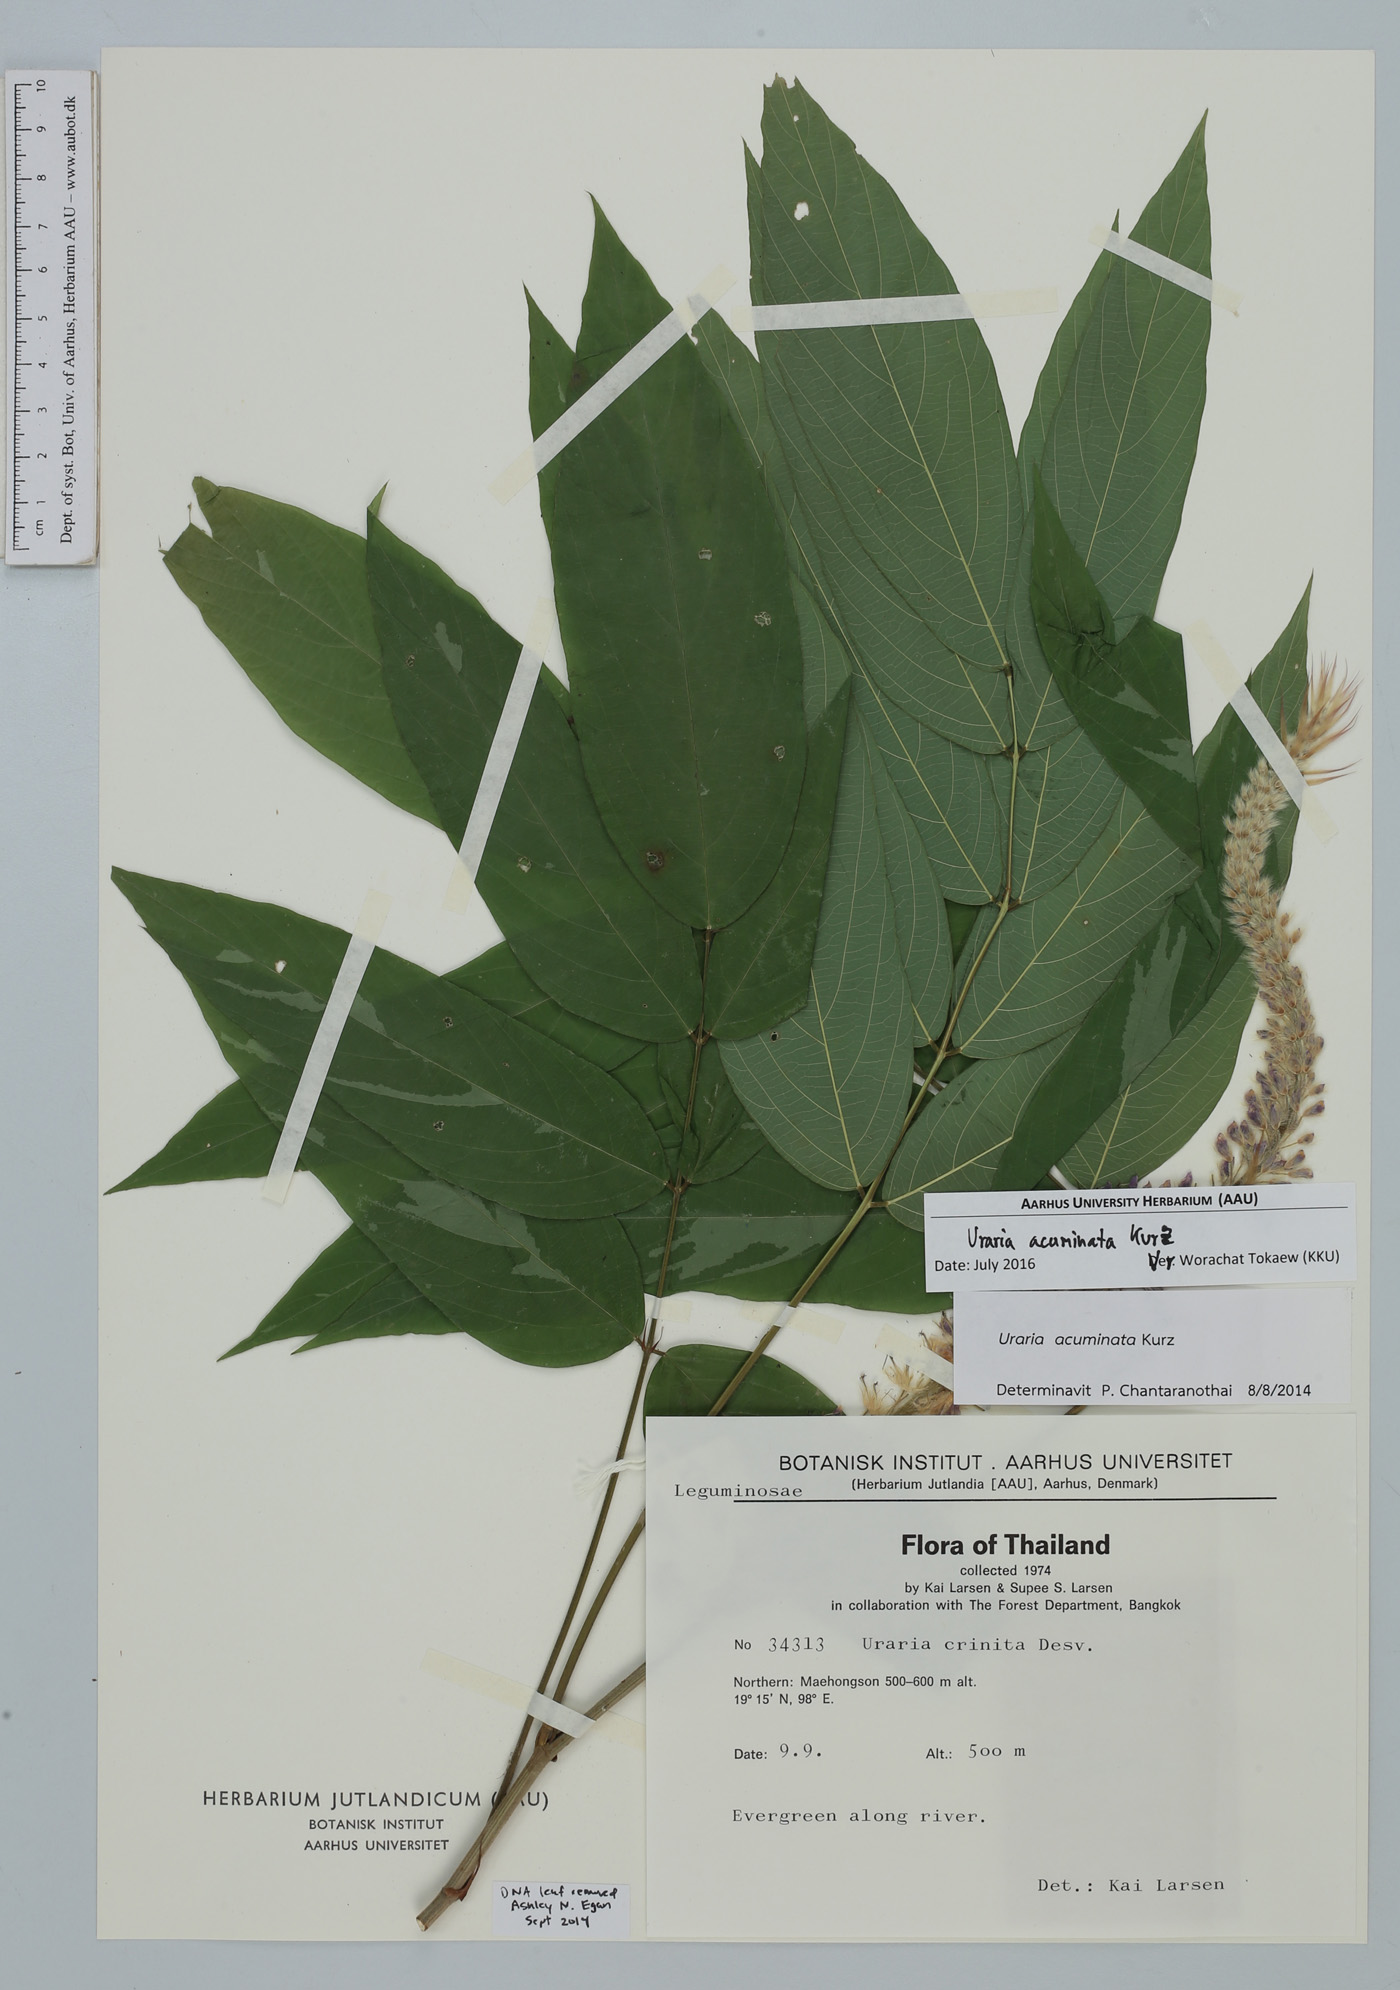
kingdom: Plantae
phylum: Tracheophyta
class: Magnoliopsida
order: Fabales
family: Fabaceae
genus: Uraria
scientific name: Uraria acuminata
